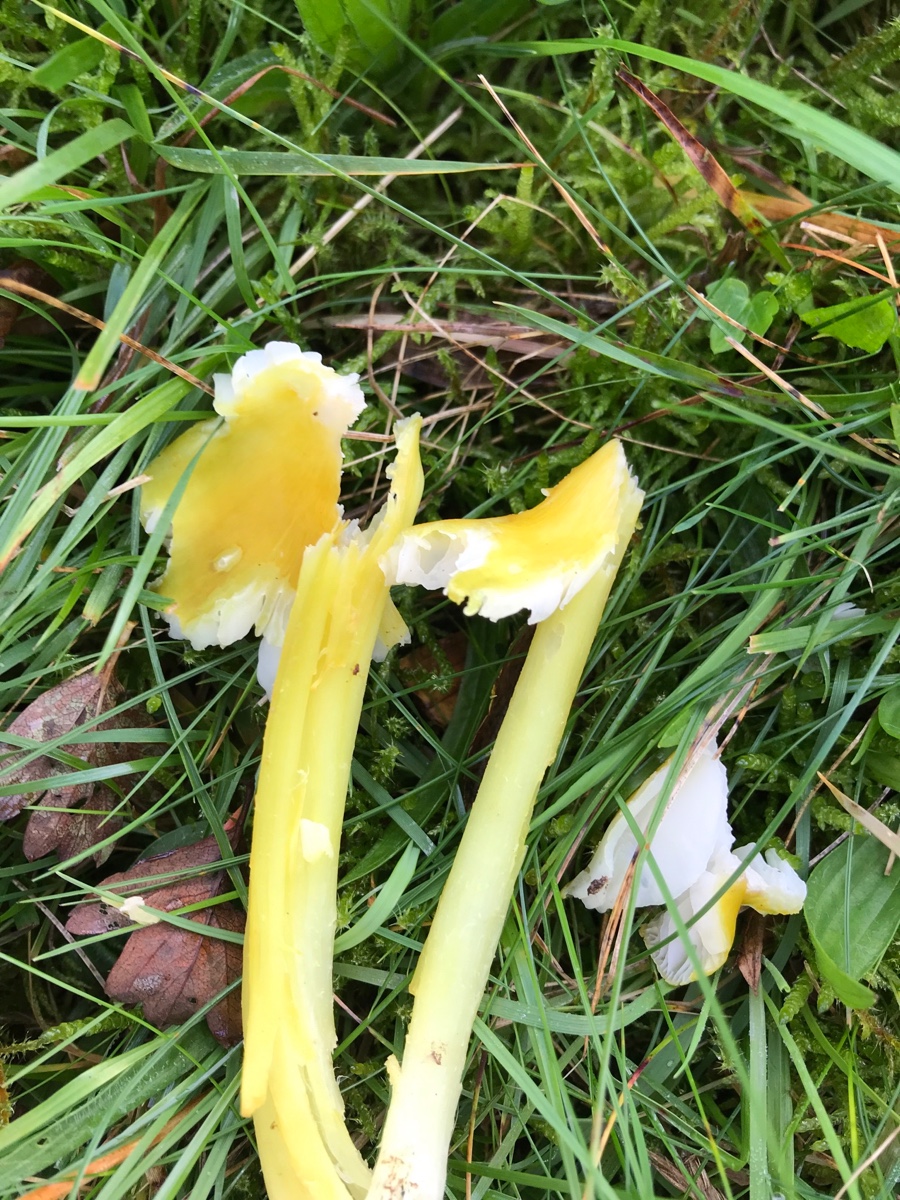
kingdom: Fungi
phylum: Basidiomycota
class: Agaricomycetes
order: Agaricales
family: Hygrophoraceae
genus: Hygrocybe
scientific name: Hygrocybe citrinovirens
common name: grøngul vokshat
